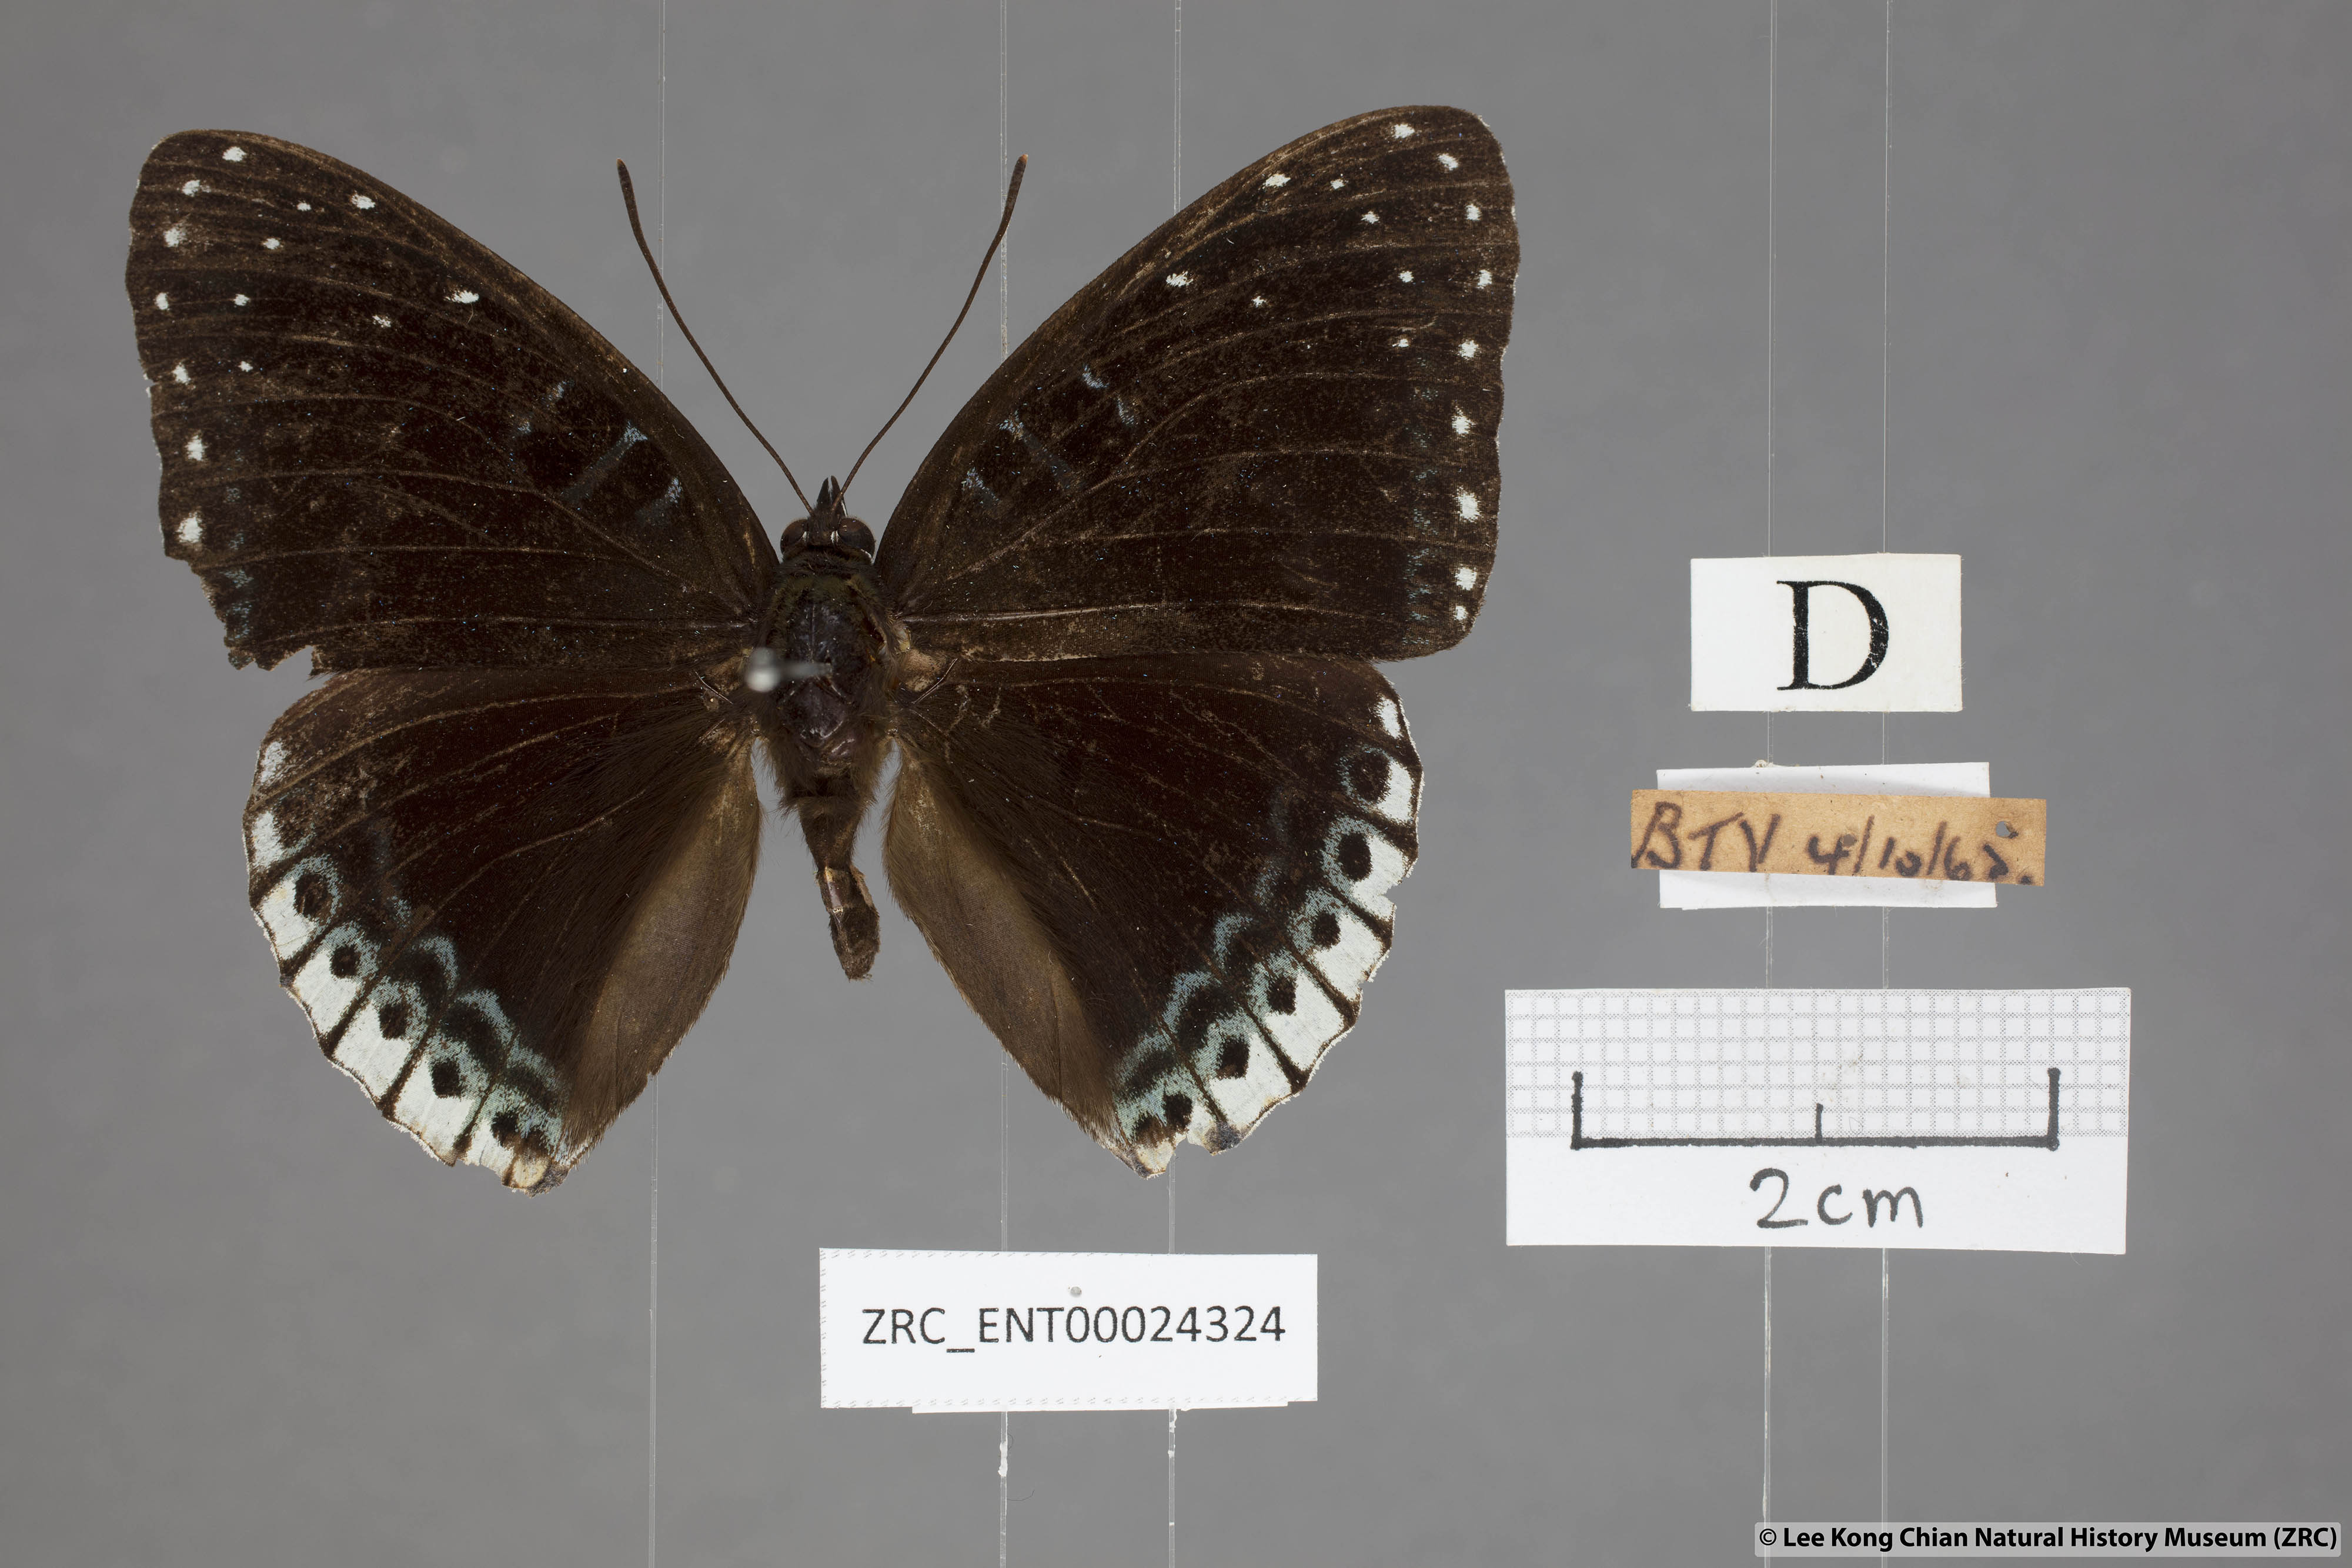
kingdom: Animalia
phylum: Arthropoda
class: Insecta
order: Lepidoptera
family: Nymphalidae
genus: Stibochiona
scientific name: Stibochiona nicea
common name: Popinjay
